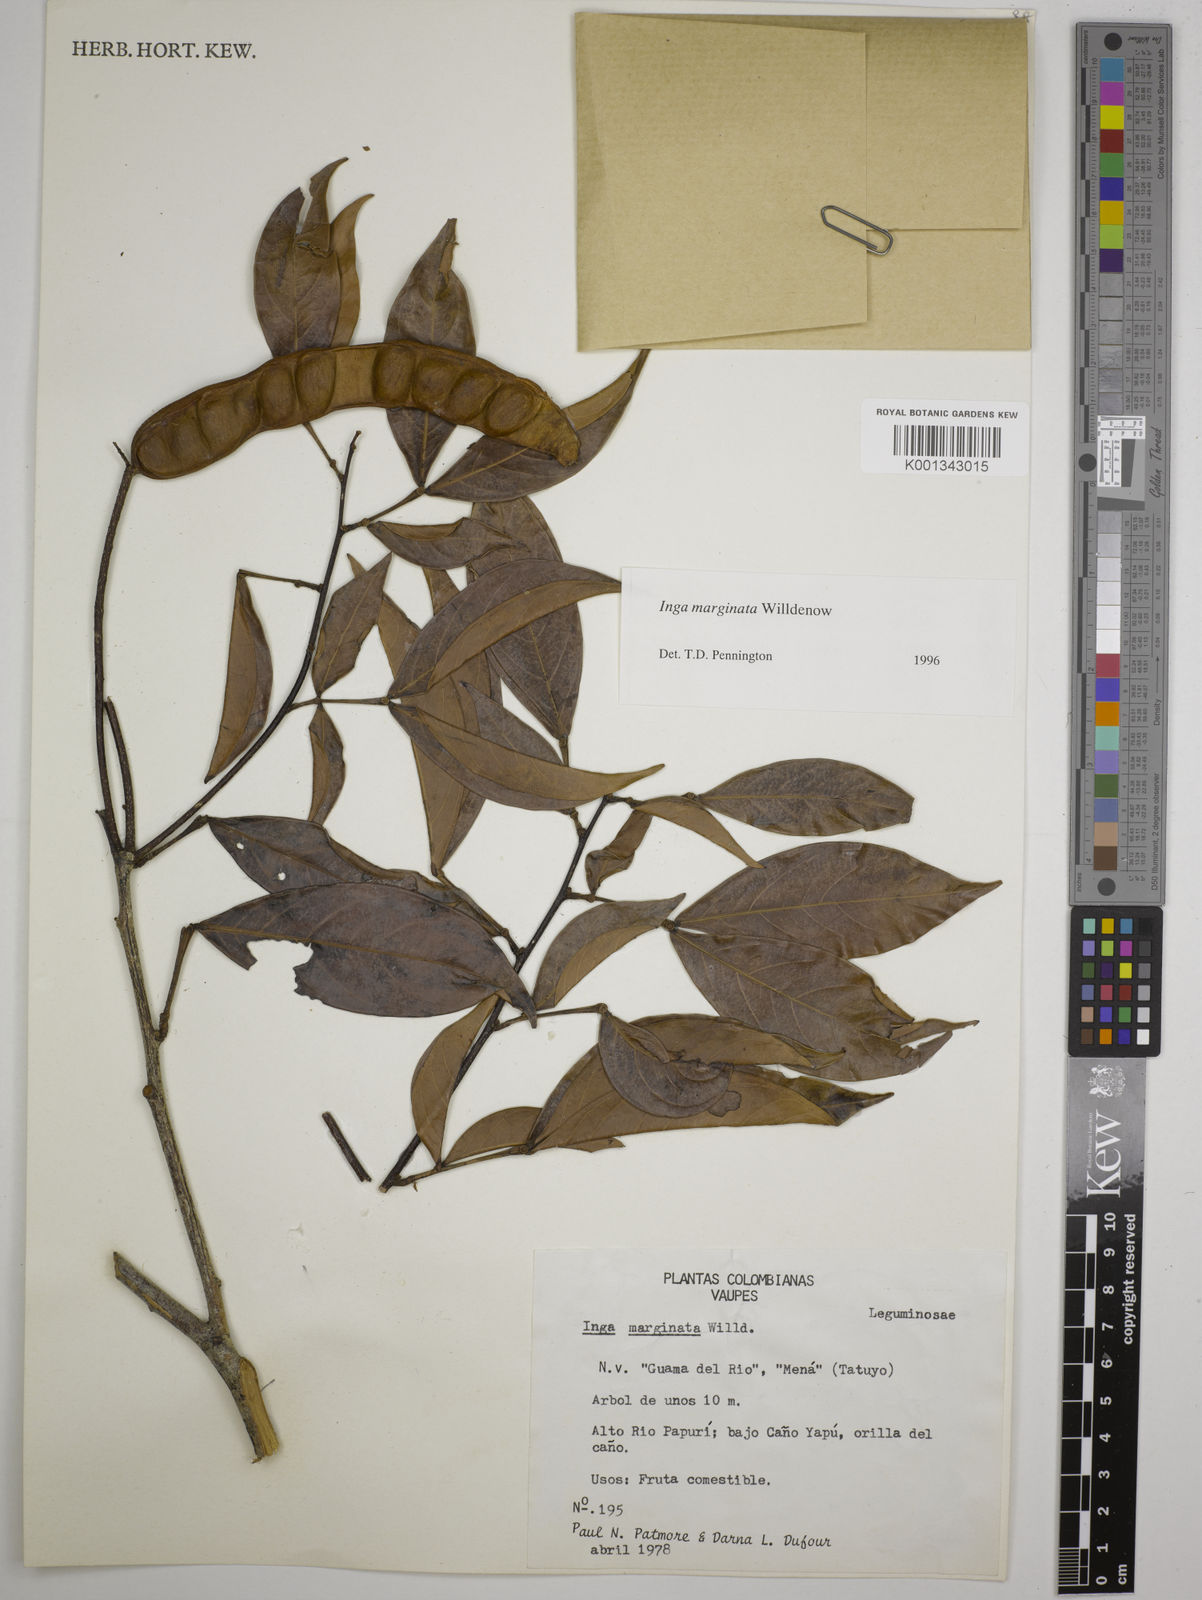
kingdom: Plantae
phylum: Tracheophyta
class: Magnoliopsida
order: Fabales
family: Fabaceae
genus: Inga
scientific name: Inga marginata
